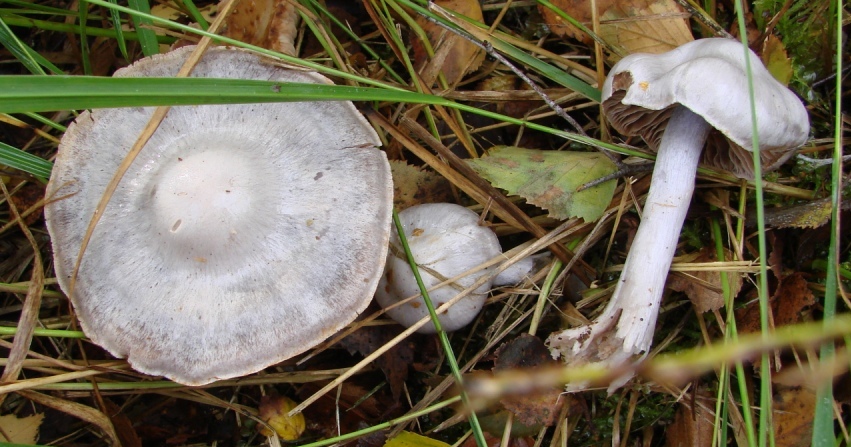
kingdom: Fungi
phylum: Basidiomycota
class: Agaricomycetes
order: Agaricales
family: Cortinariaceae
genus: Cortinarius
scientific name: Cortinarius alboviolaceus
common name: lysviolet slørhat
